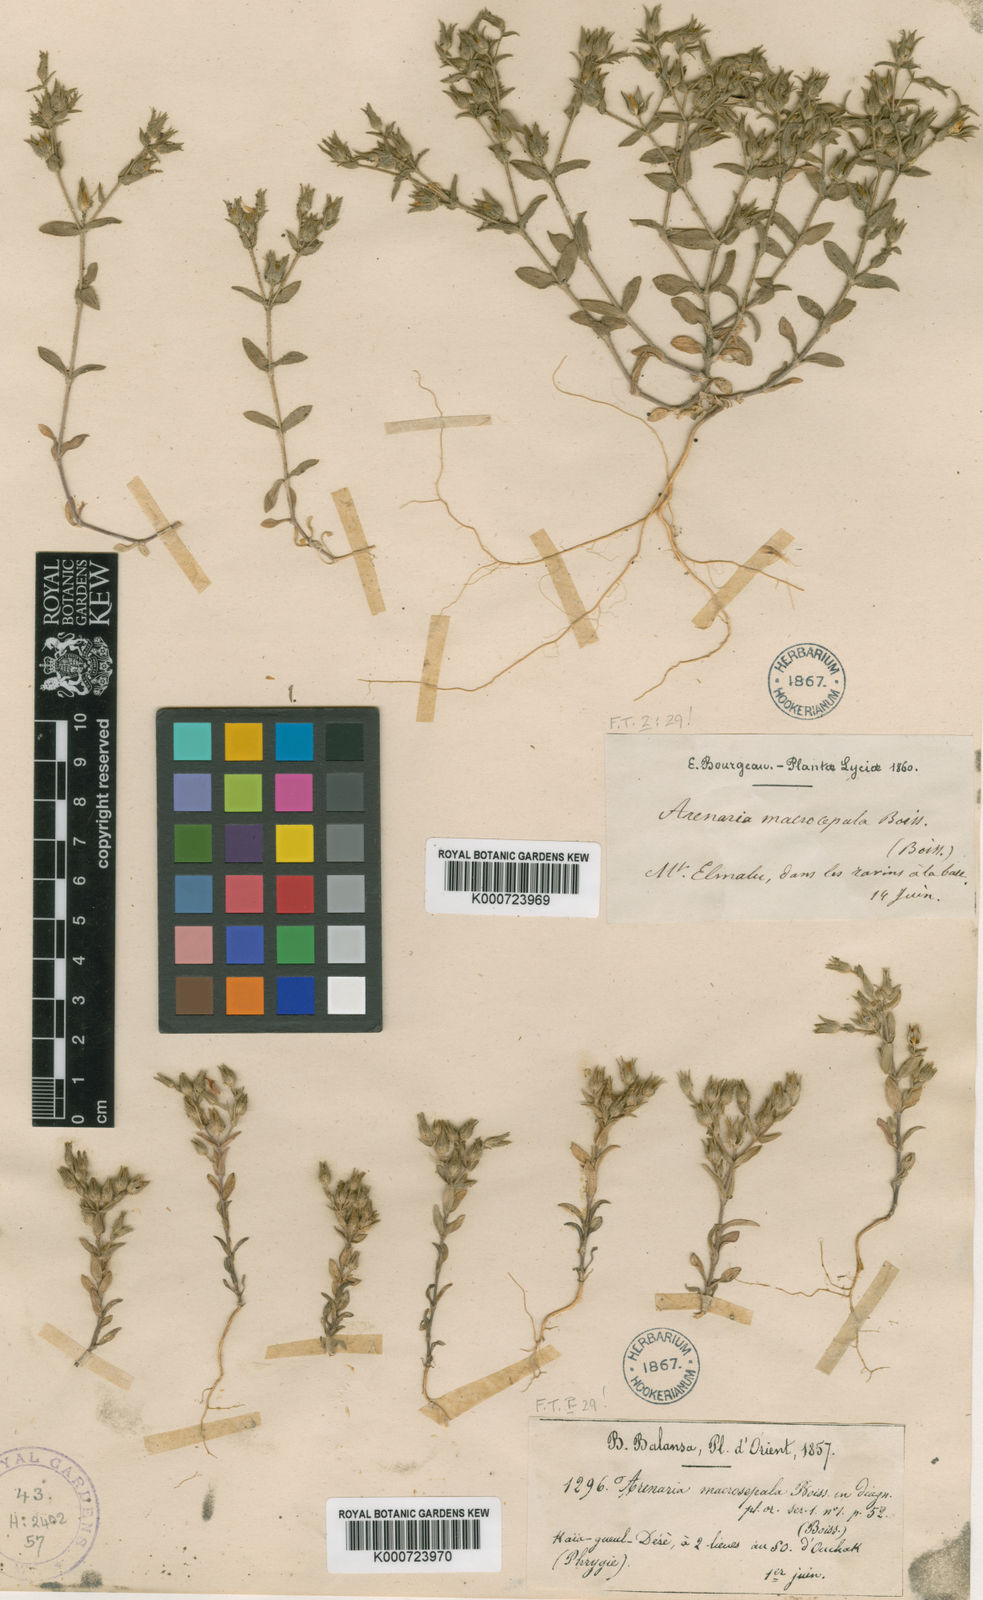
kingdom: Plantae
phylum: Tracheophyta
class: Magnoliopsida
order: Caryophyllales
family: Caryophyllaceae
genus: Arenaria
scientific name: Arenaria macrosepala
